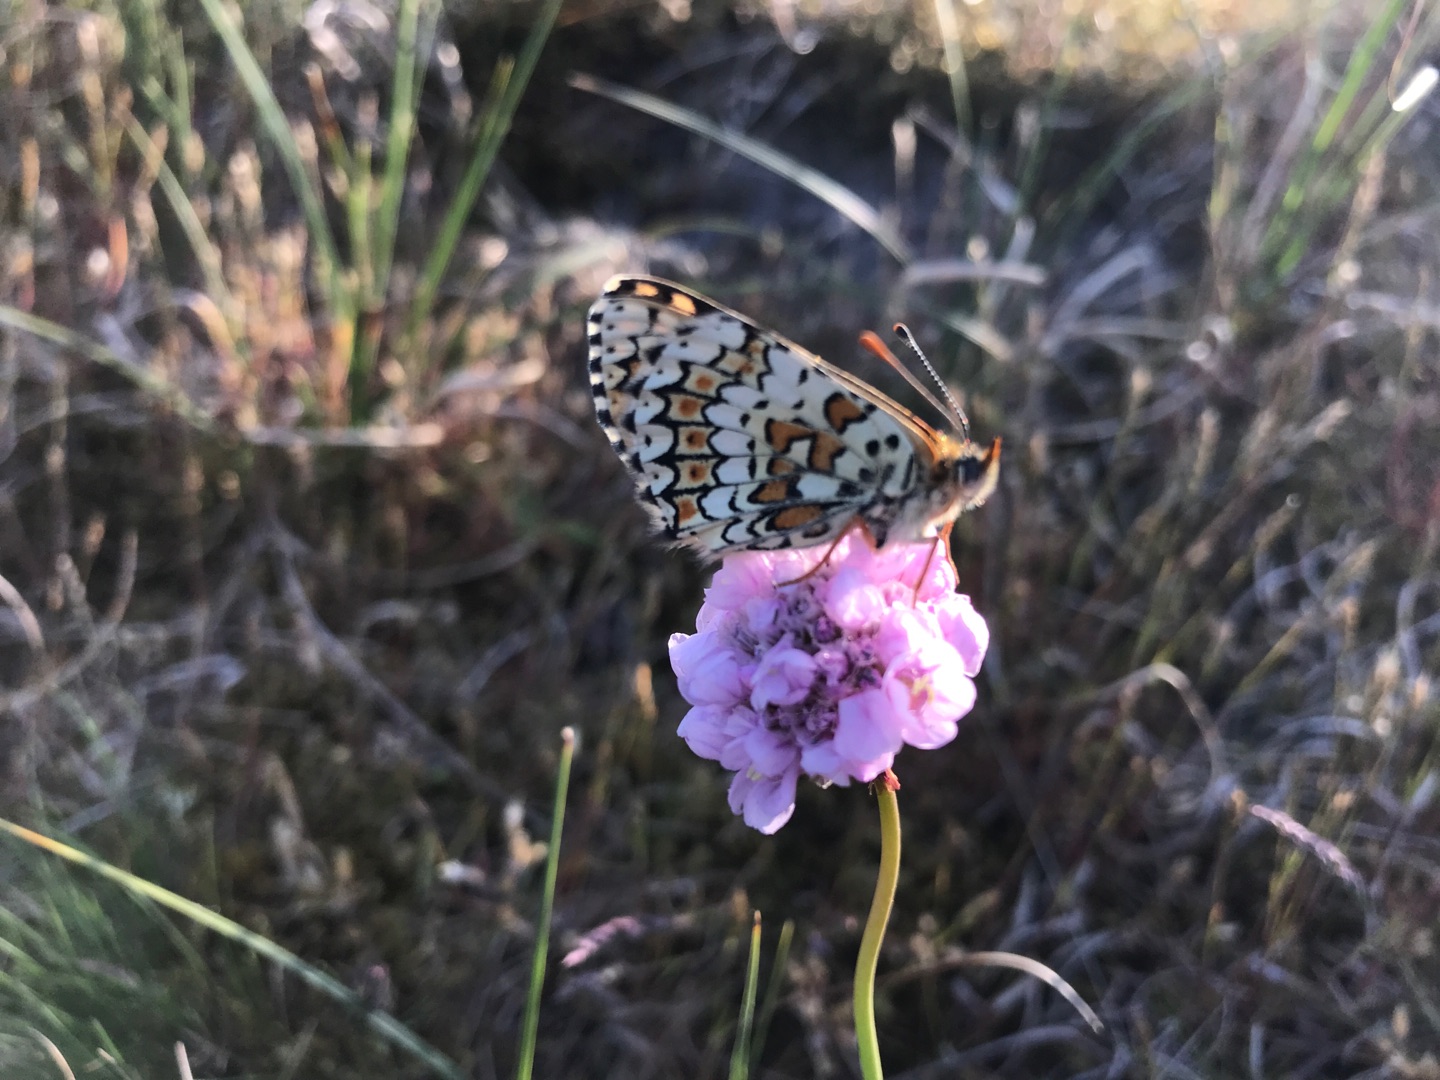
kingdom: Animalia
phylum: Arthropoda
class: Insecta
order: Lepidoptera
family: Nymphalidae
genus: Melitaea
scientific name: Melitaea cinxia
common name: Okkergul pletvinge
